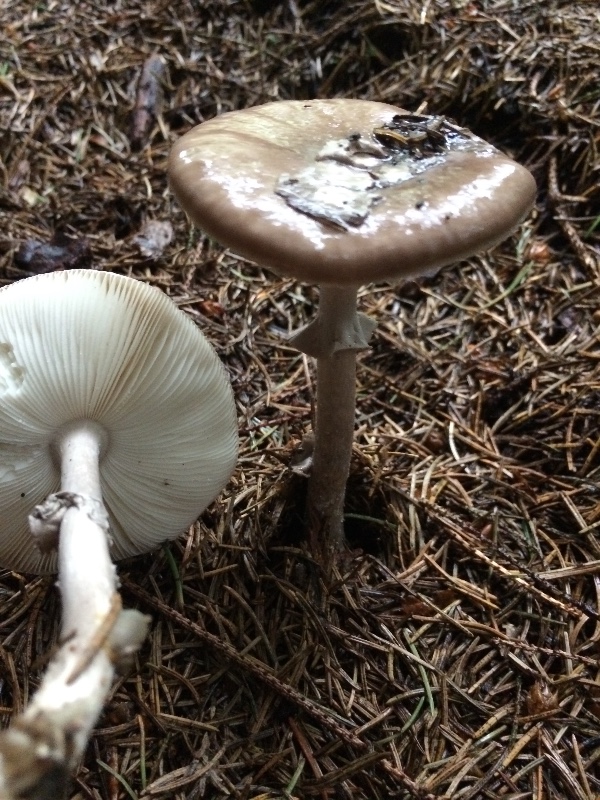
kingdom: Fungi
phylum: Basidiomycota
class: Agaricomycetes
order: Agaricales
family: Amanitaceae
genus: Amanita
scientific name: Amanita porphyria
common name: porfyr-fluesvamp
